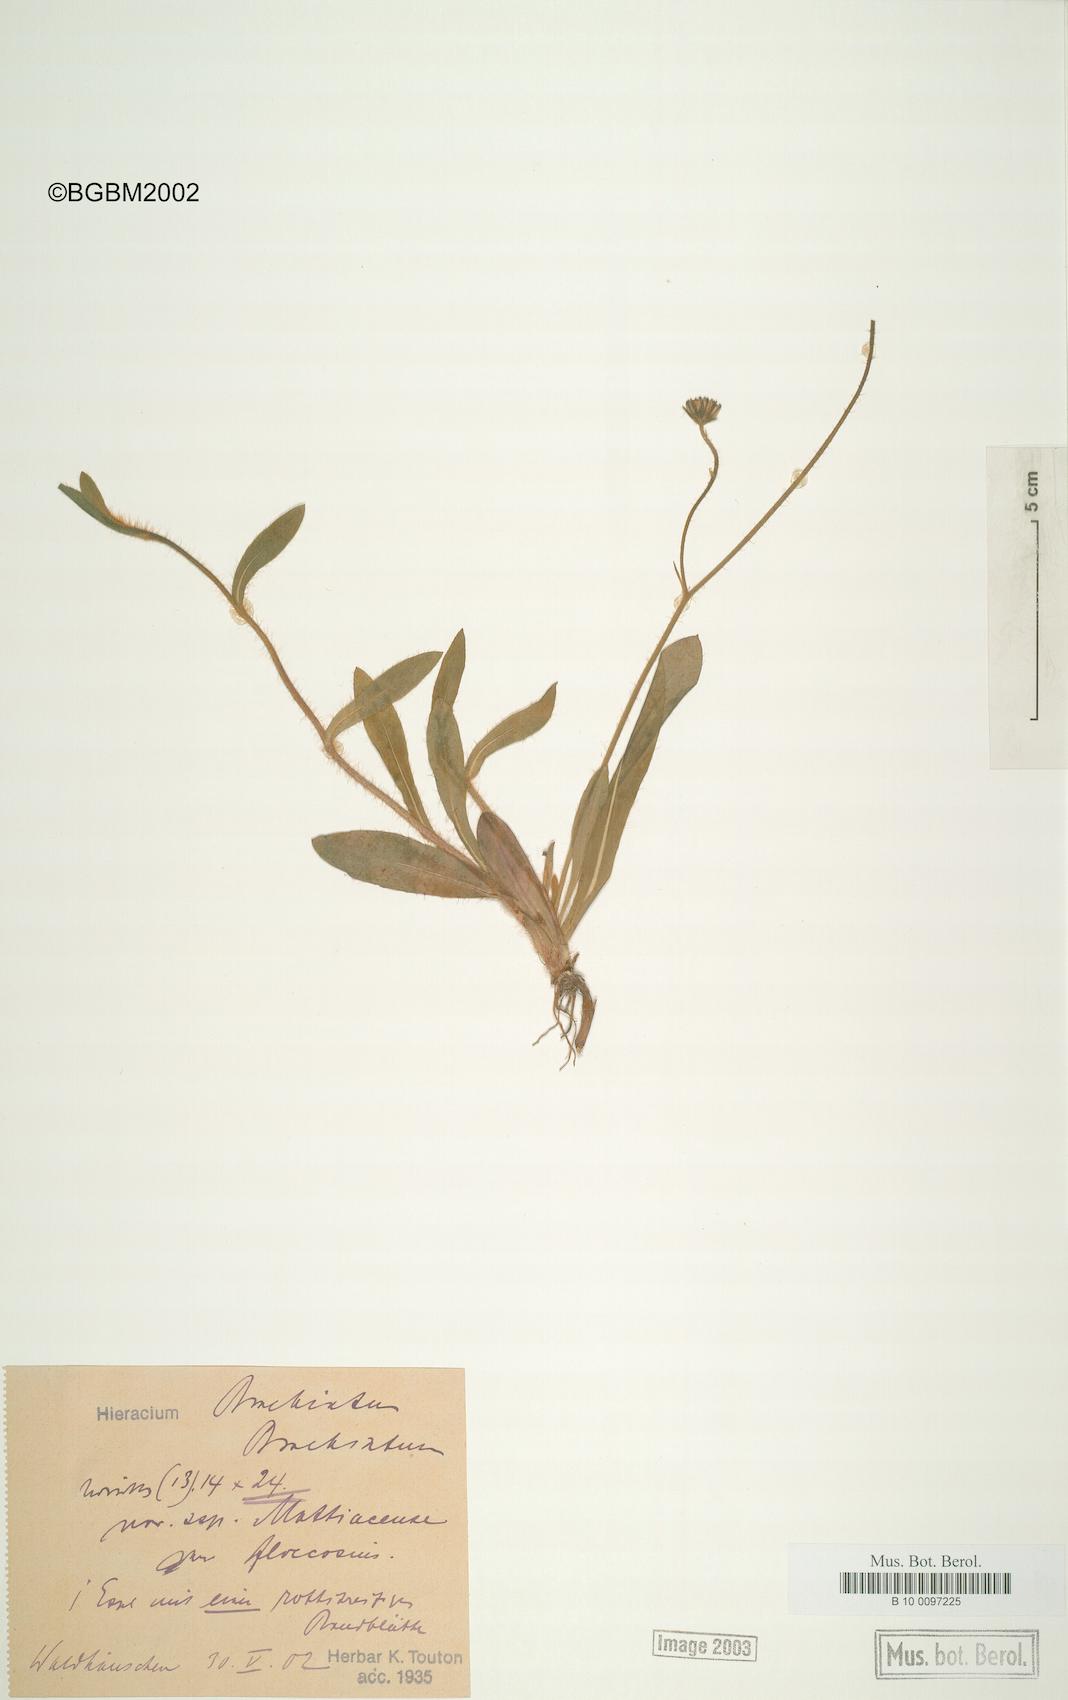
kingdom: Plantae
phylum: Tracheophyta
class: Magnoliopsida
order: Asterales
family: Asteraceae
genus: Pilosella
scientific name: Pilosella acutifolia
